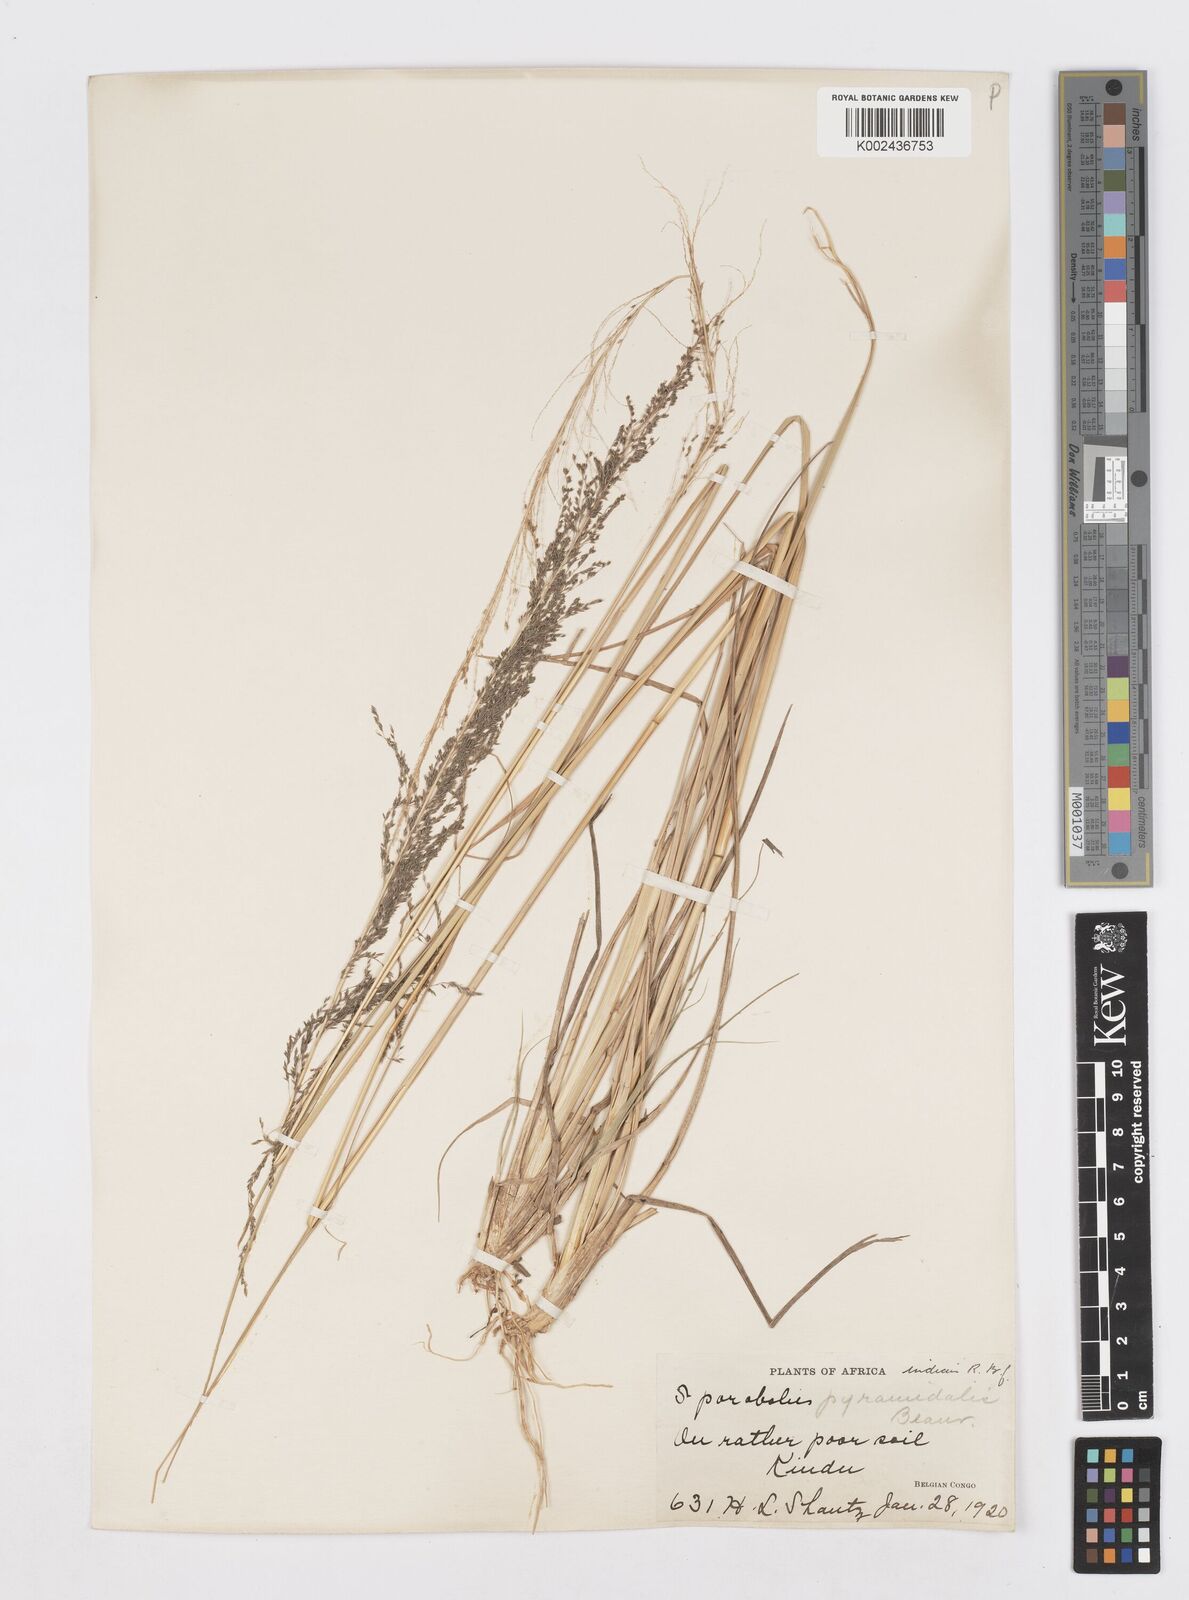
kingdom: Plantae
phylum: Tracheophyta
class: Liliopsida
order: Poales
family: Poaceae
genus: Sporobolus
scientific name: Sporobolus pyramidalis
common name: West indian dropseed
